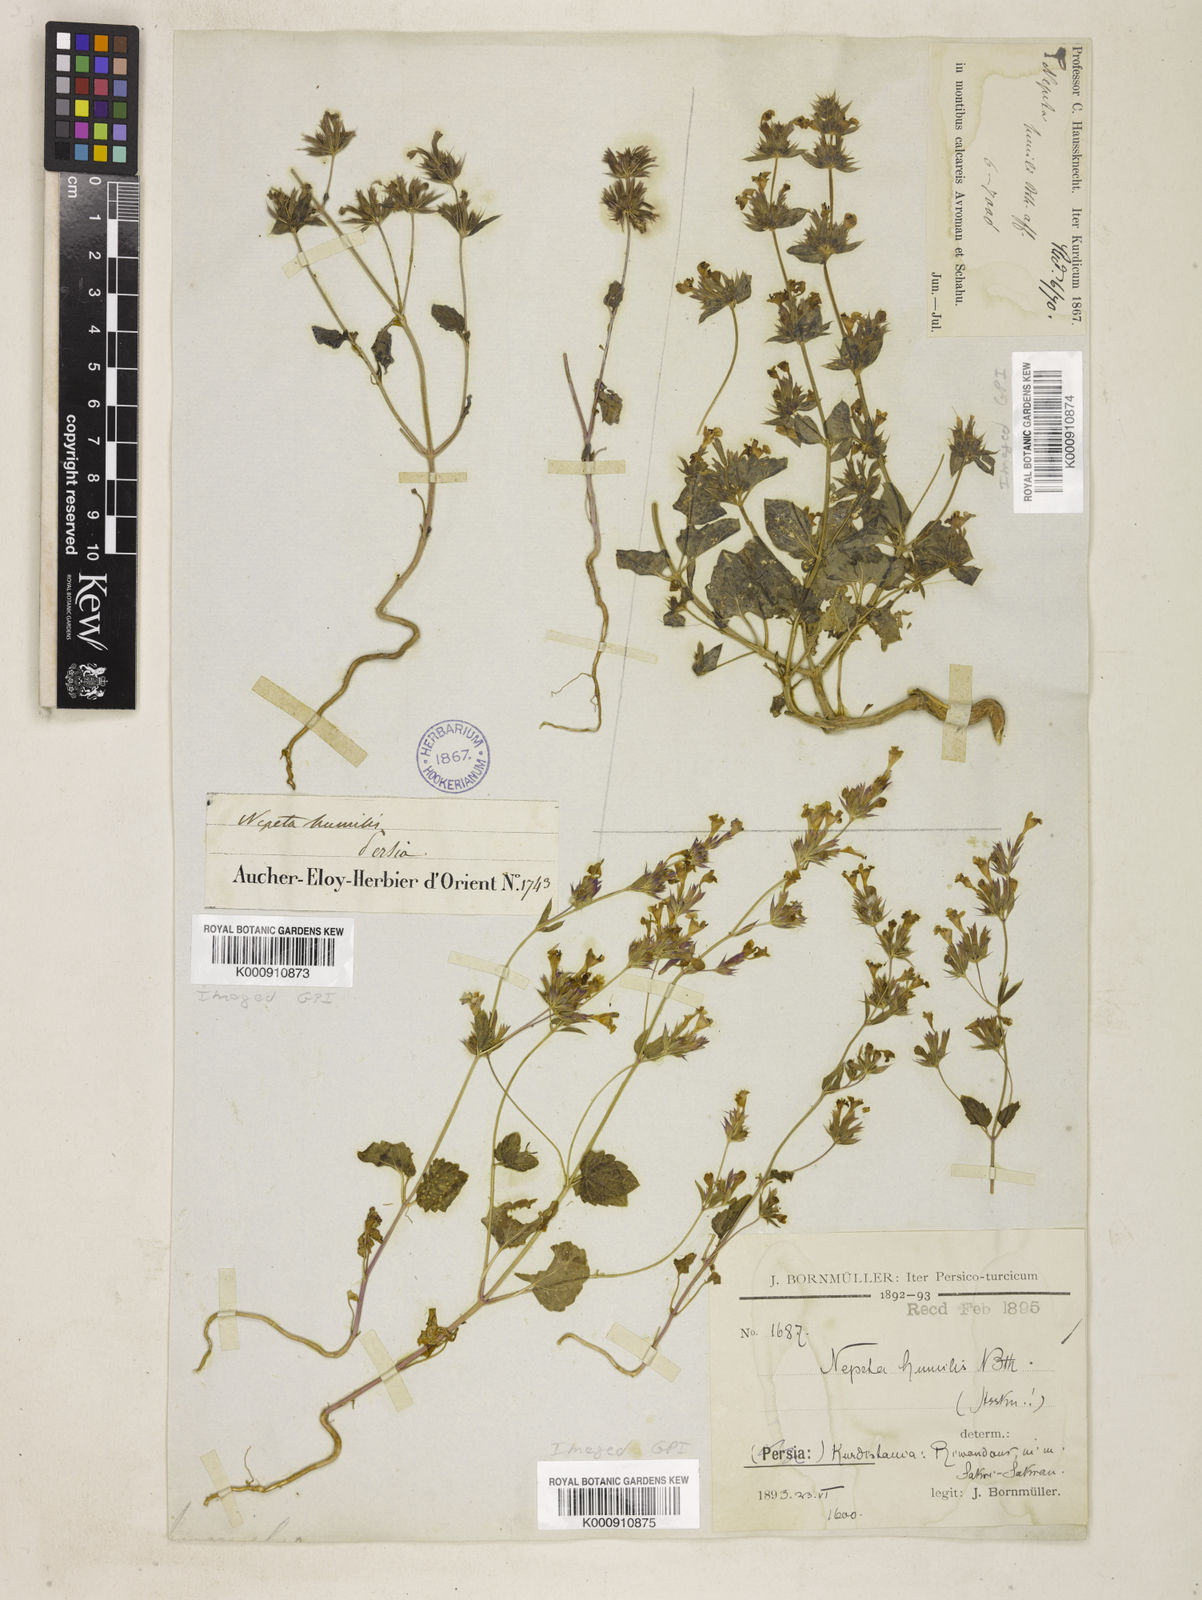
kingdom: Plantae
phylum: Tracheophyta
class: Magnoliopsida
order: Lamiales
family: Lamiaceae
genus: Nepeta
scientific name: Nepeta humilis
